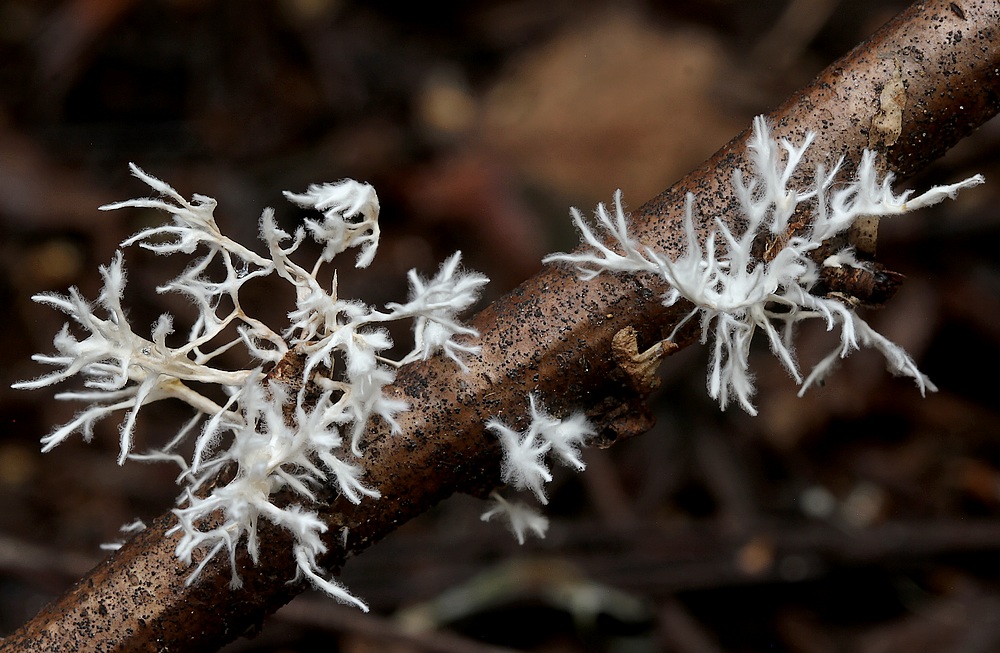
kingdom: Fungi
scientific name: Fungi
